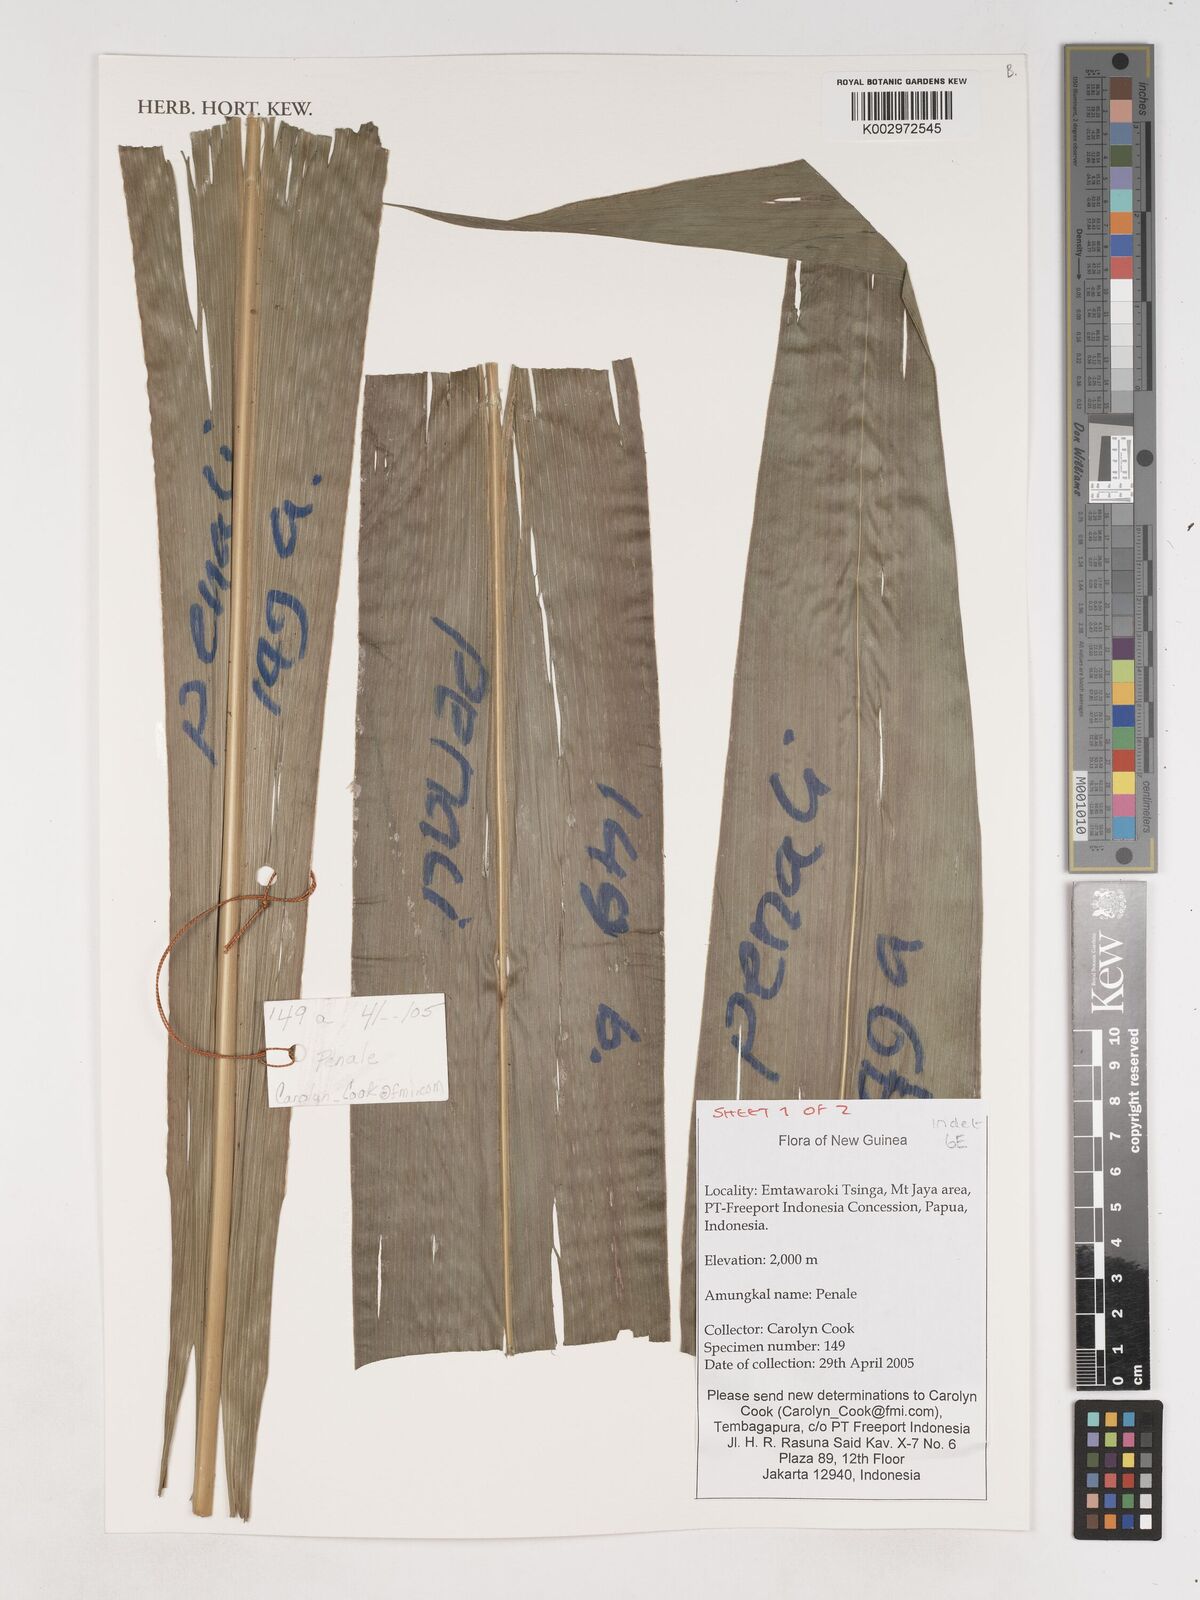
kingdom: Plantae
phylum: Tracheophyta
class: Liliopsida
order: Asparagales
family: Asparagaceae
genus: Cordyline
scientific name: Cordyline
